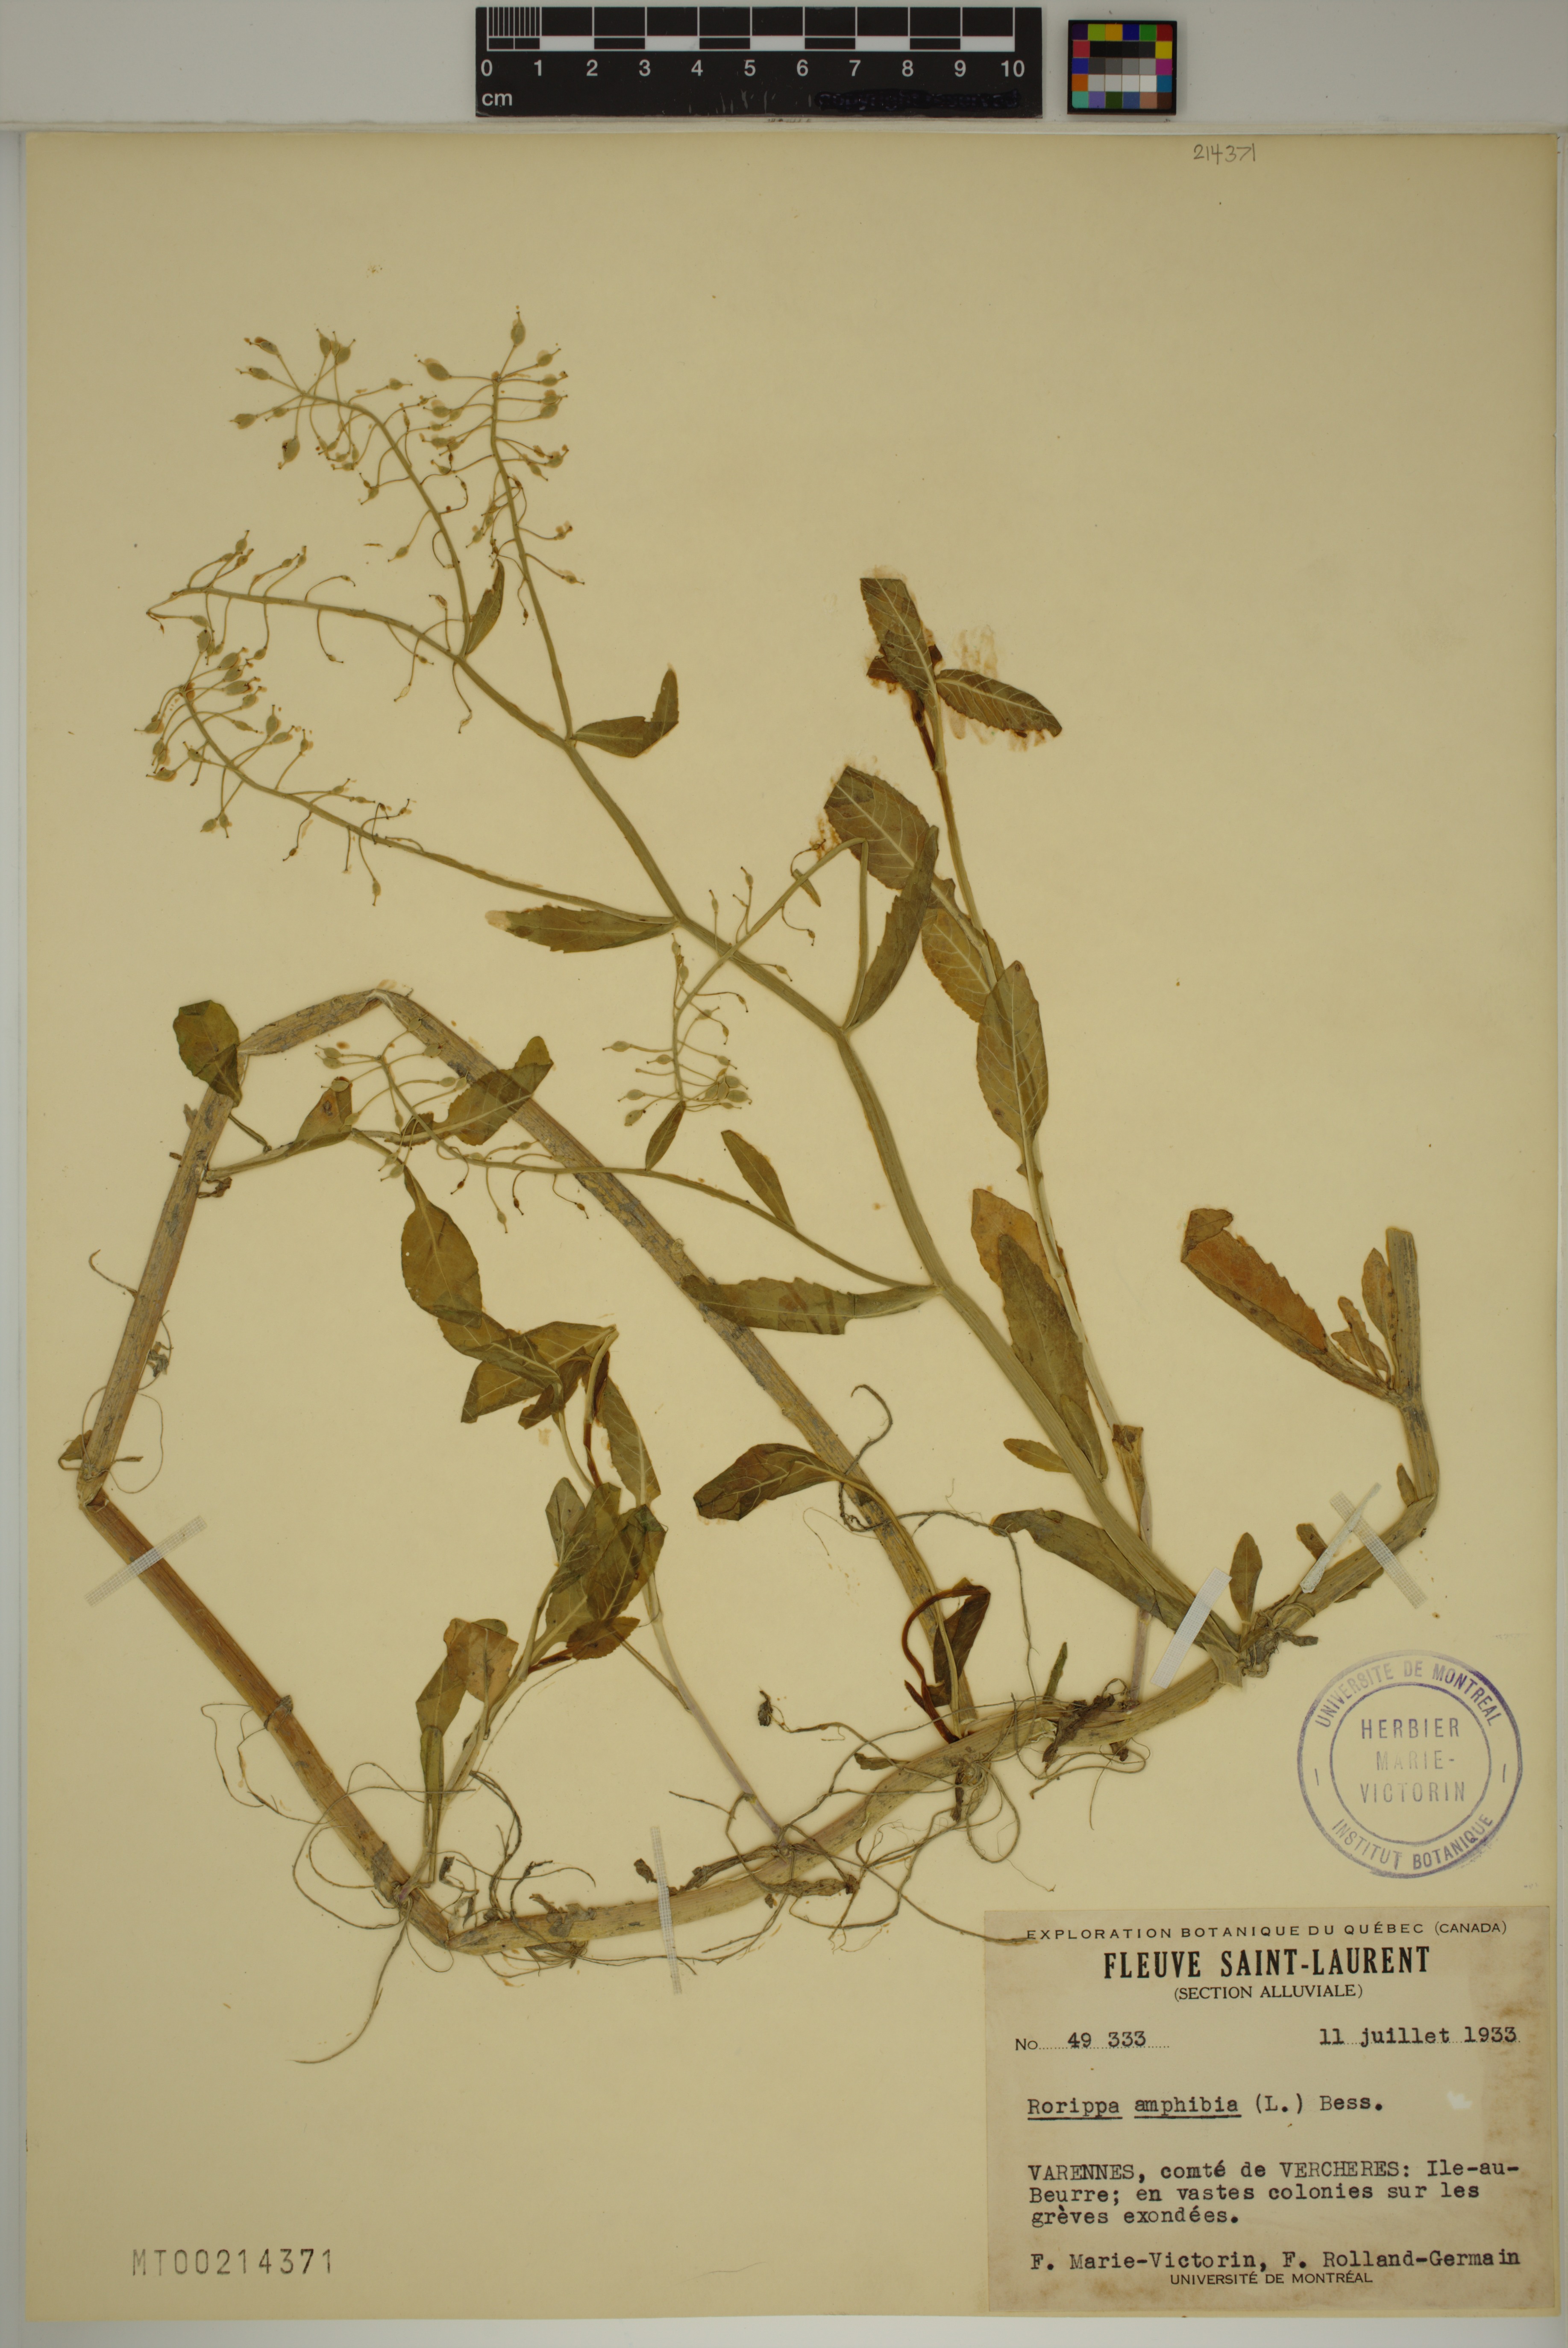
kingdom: Plantae
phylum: Tracheophyta
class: Magnoliopsida
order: Brassicales
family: Brassicaceae
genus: Rorippa
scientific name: Rorippa amphibia
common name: Great yellow-cress
